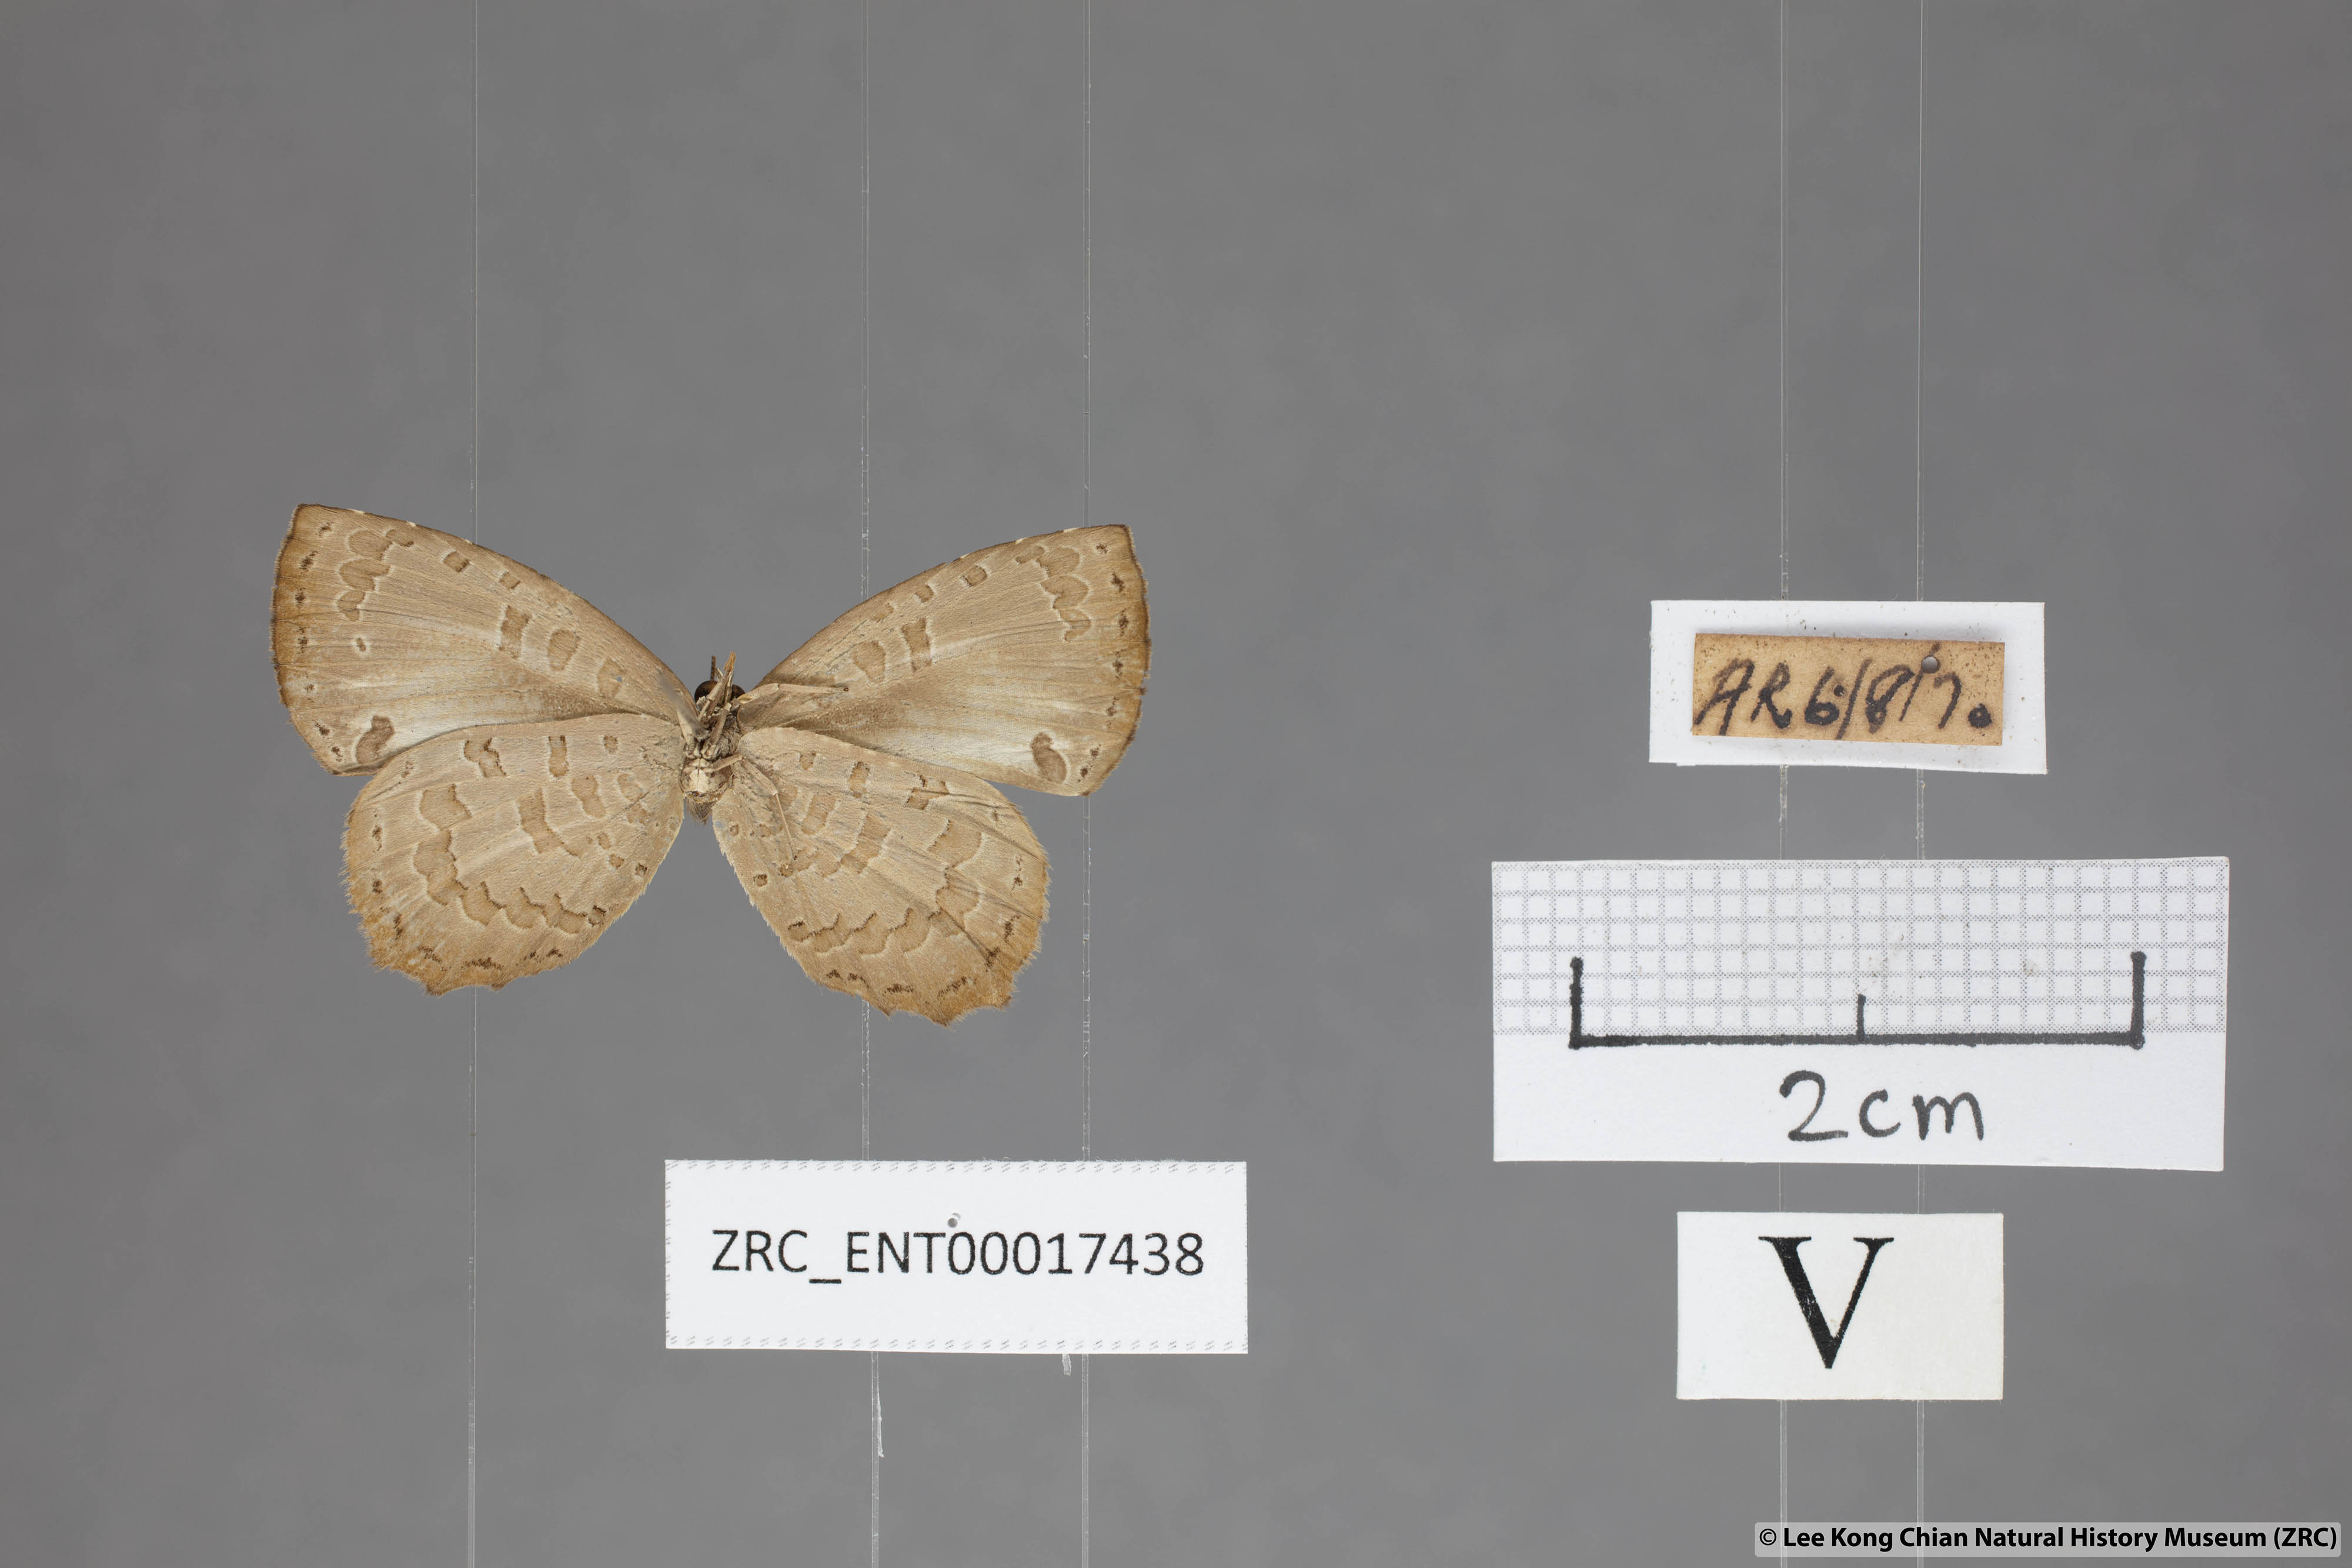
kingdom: Animalia
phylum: Arthropoda
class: Insecta
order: Lepidoptera
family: Lycaenidae
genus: Miletus
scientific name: Miletus gaesa
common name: Brown brownie
